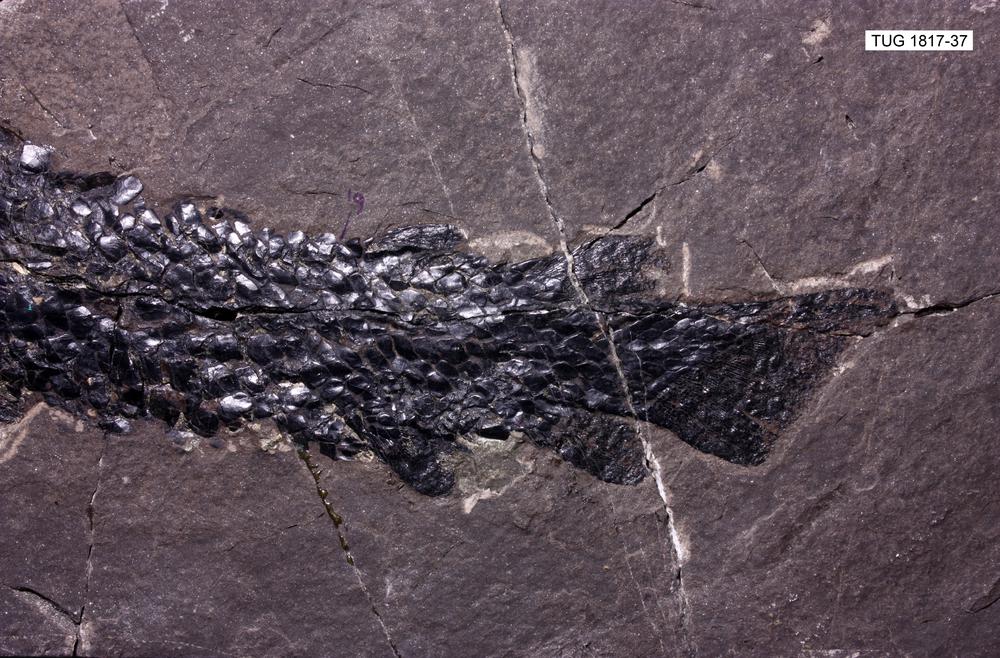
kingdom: Animalia
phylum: Chordata
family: Thursiidae
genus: Thursius
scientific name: Thursius pholidotus
